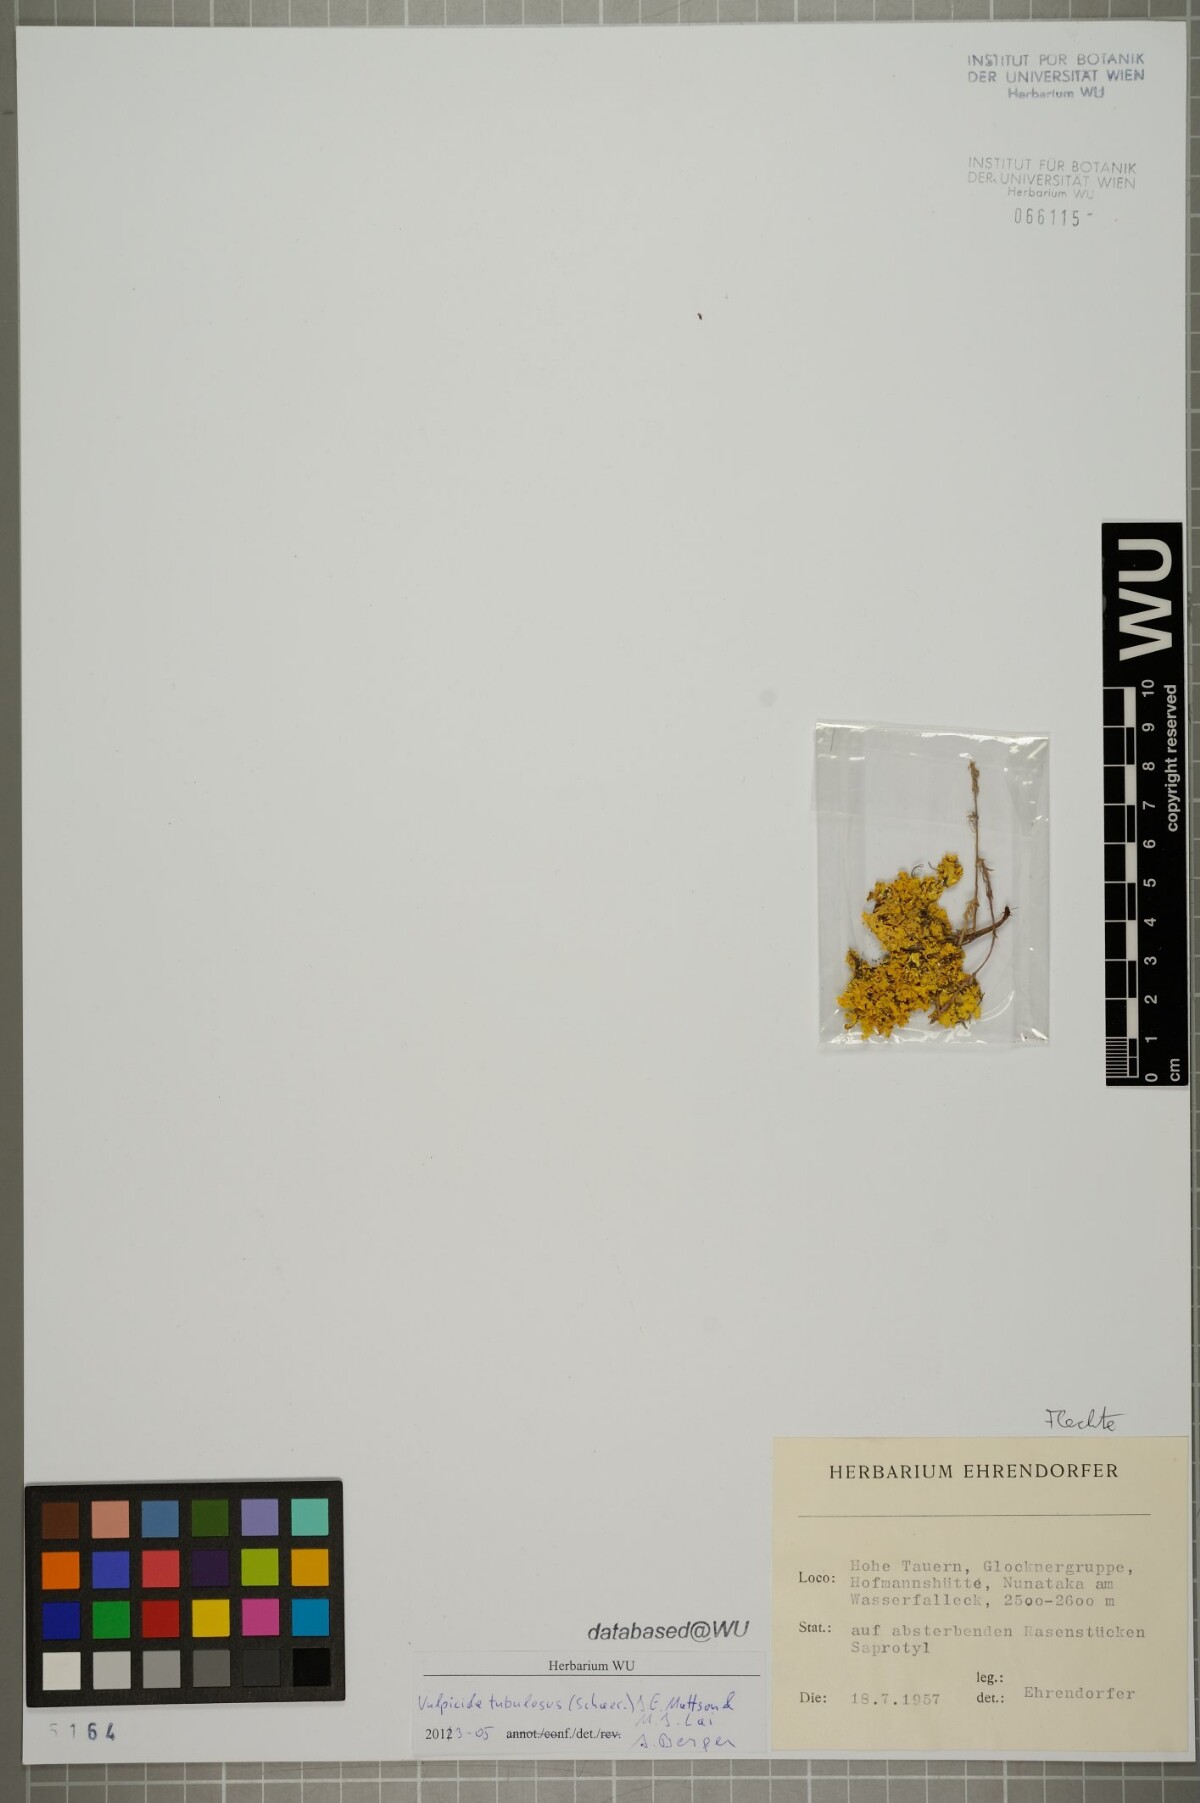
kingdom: Fungi
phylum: Ascomycota
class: Lecanoromycetes
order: Lecanorales
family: Parmeliaceae
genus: Vulpicida
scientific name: Vulpicida tubulosus
